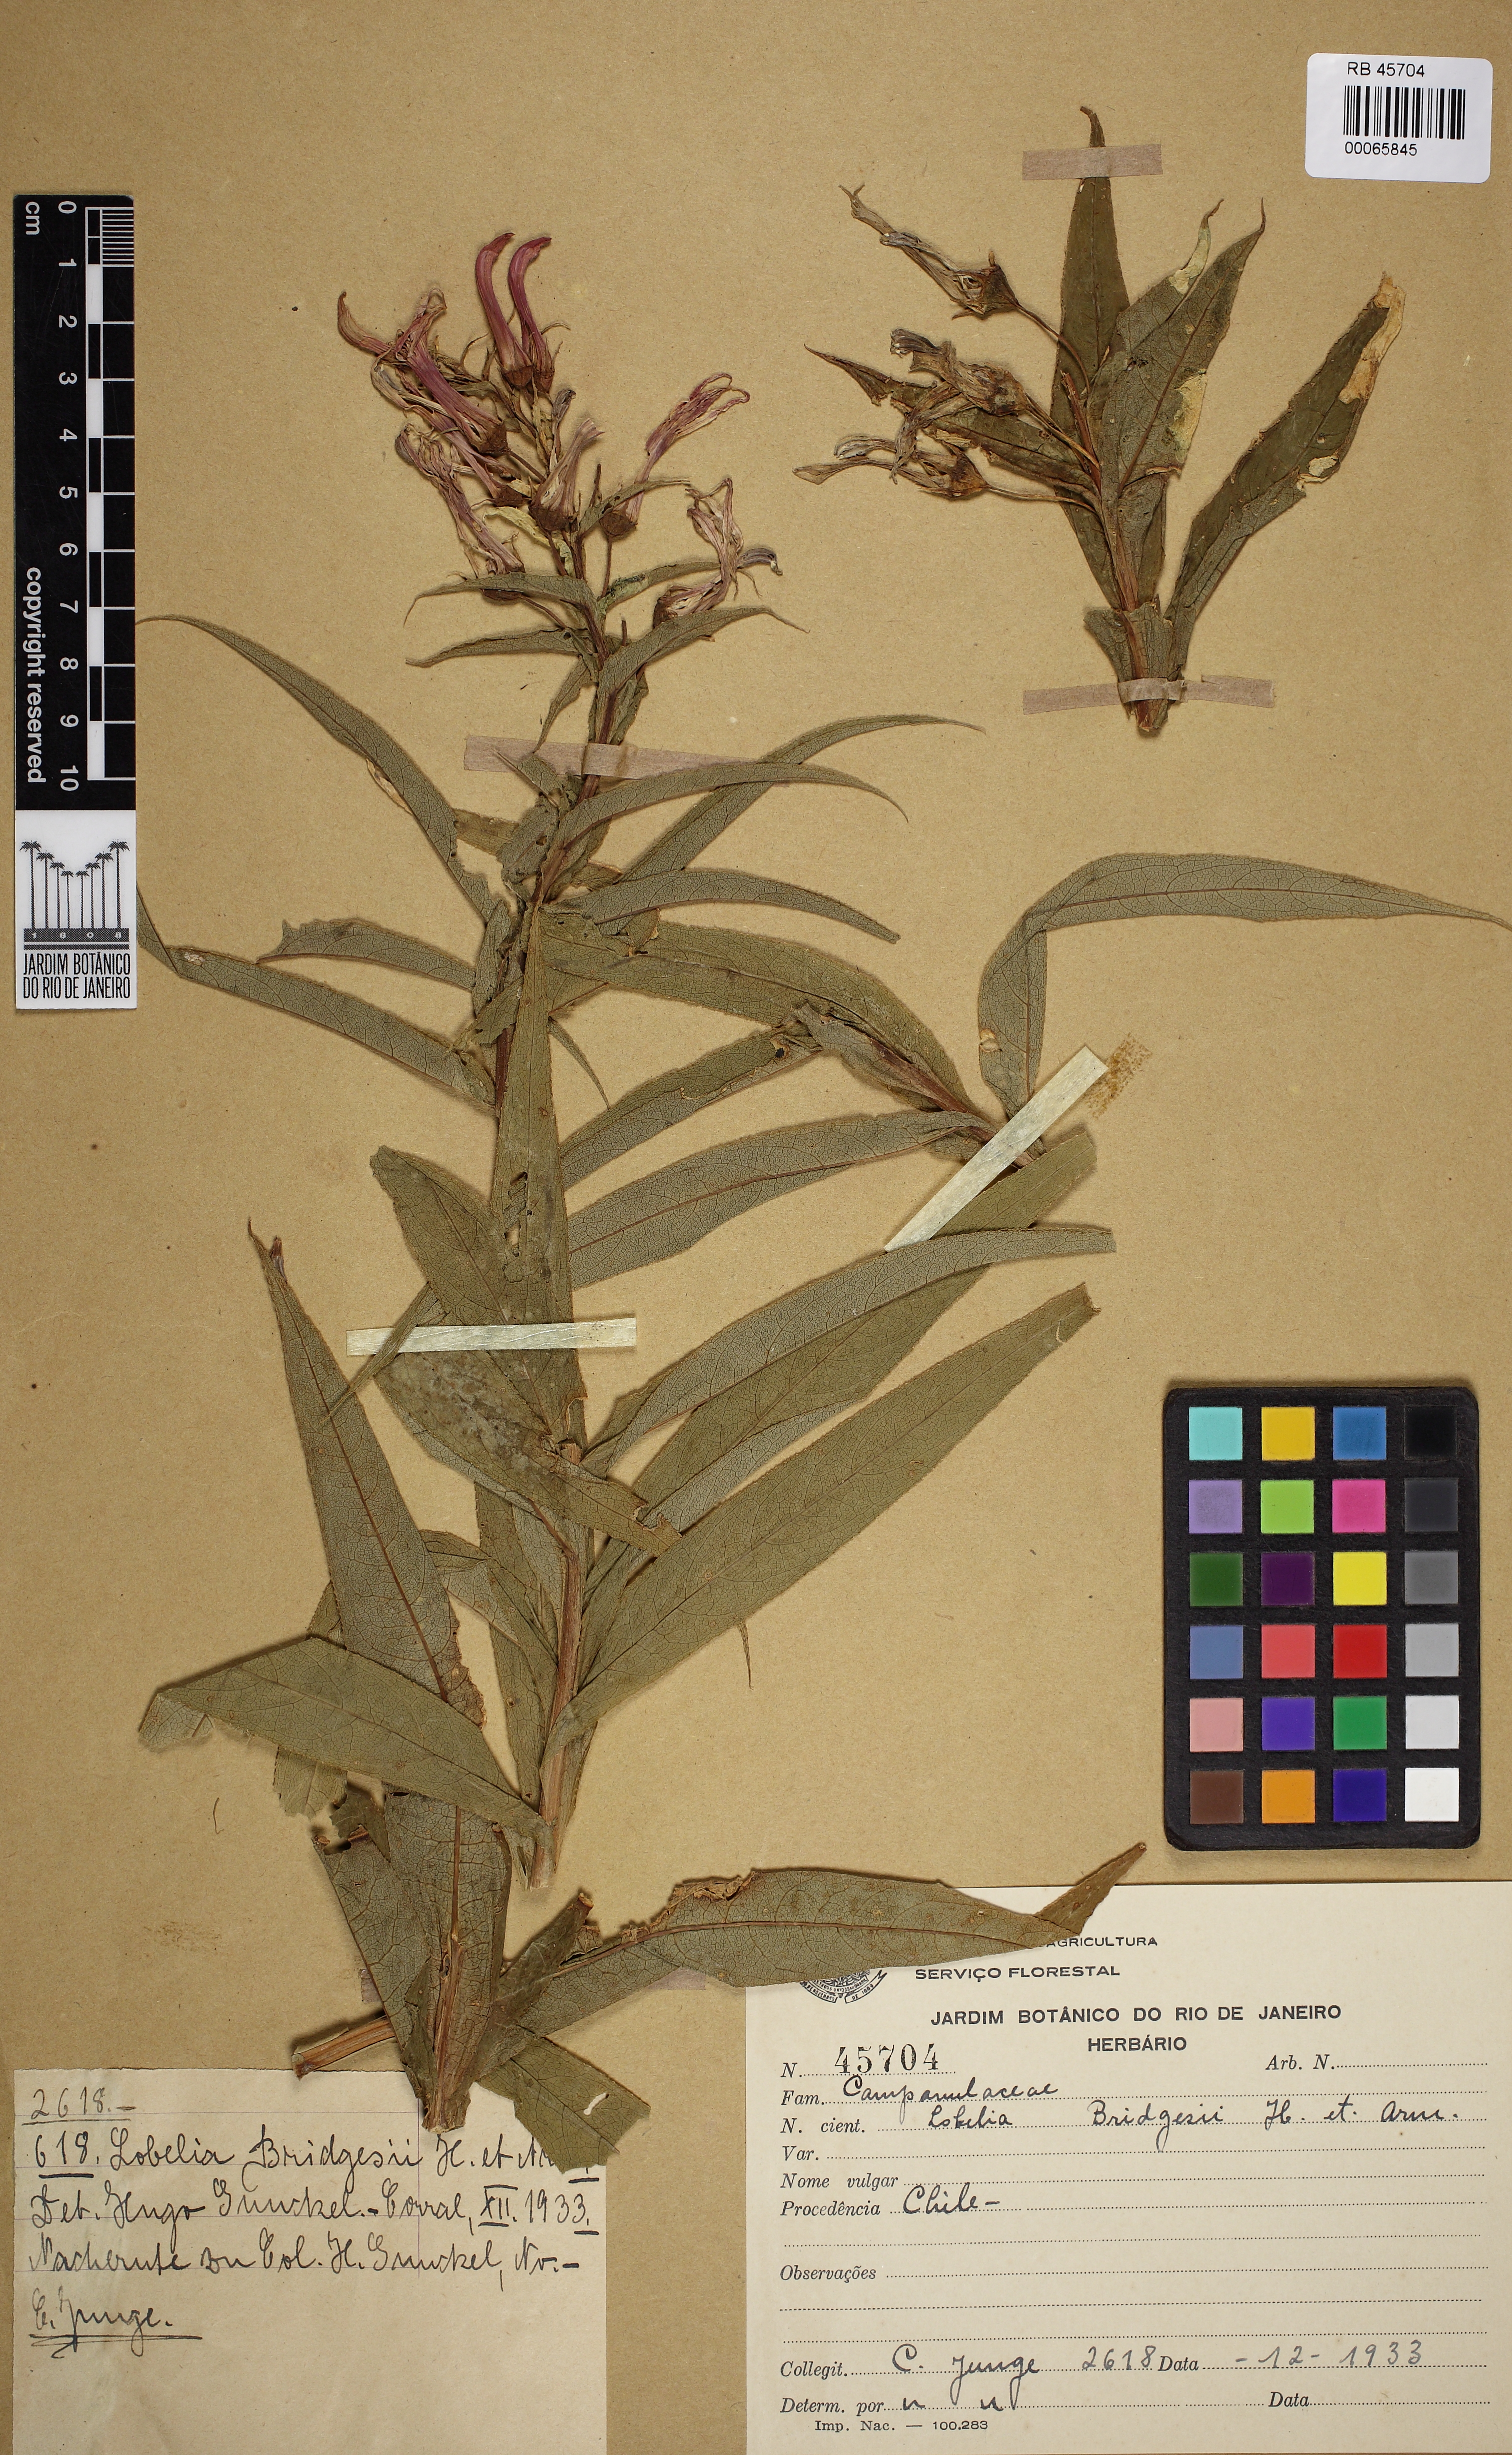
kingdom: Plantae
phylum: Tracheophyta
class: Magnoliopsida
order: Asterales
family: Campanulaceae
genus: Lobelia
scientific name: Lobelia bridgesii
